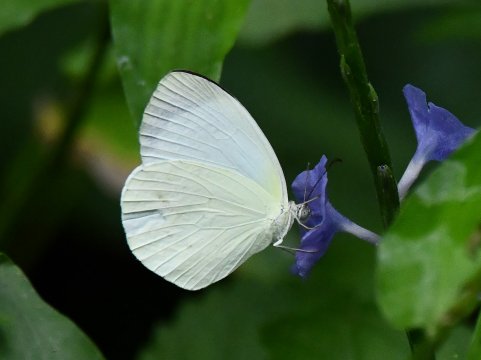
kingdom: Animalia
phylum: Arthropoda
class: Insecta
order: Lepidoptera
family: Pieridae
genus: Eurema
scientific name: Eurema albula
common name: White Yellow
